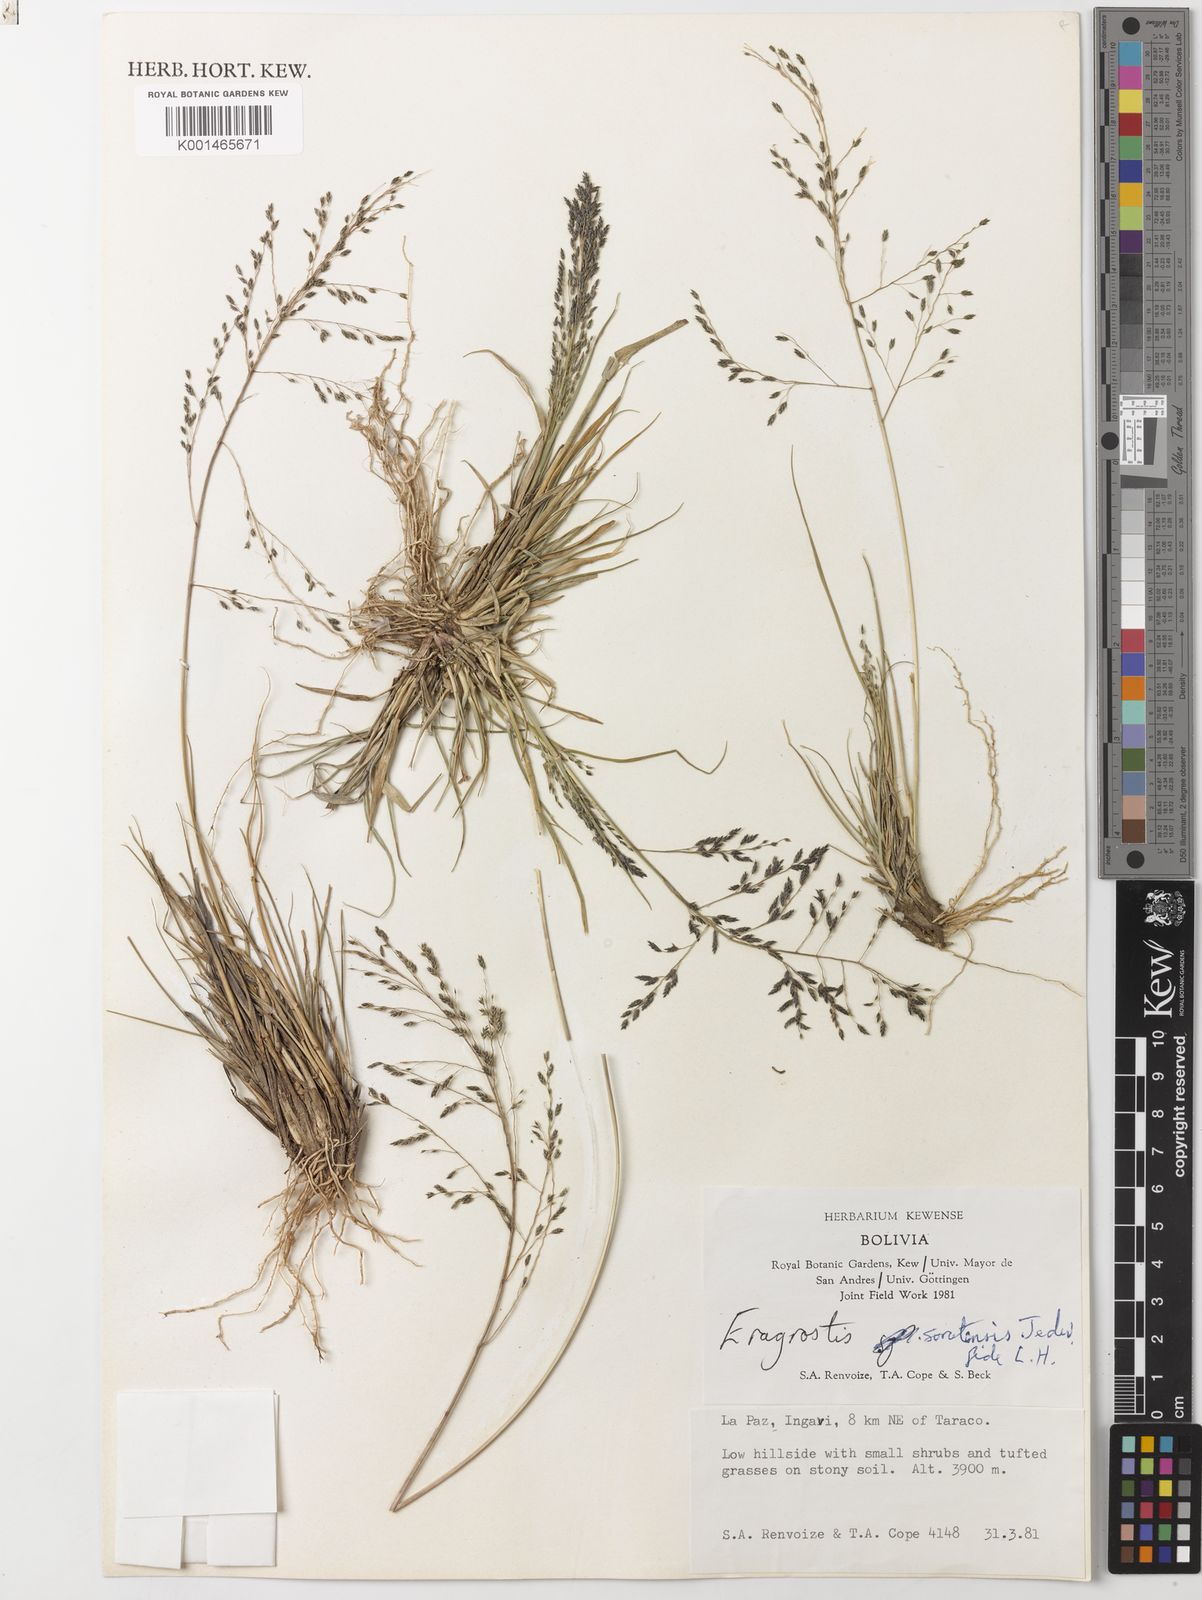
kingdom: Plantae
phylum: Tracheophyta
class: Liliopsida
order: Poales
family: Poaceae
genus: Eragrostis
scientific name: Eragrostis soratensis
